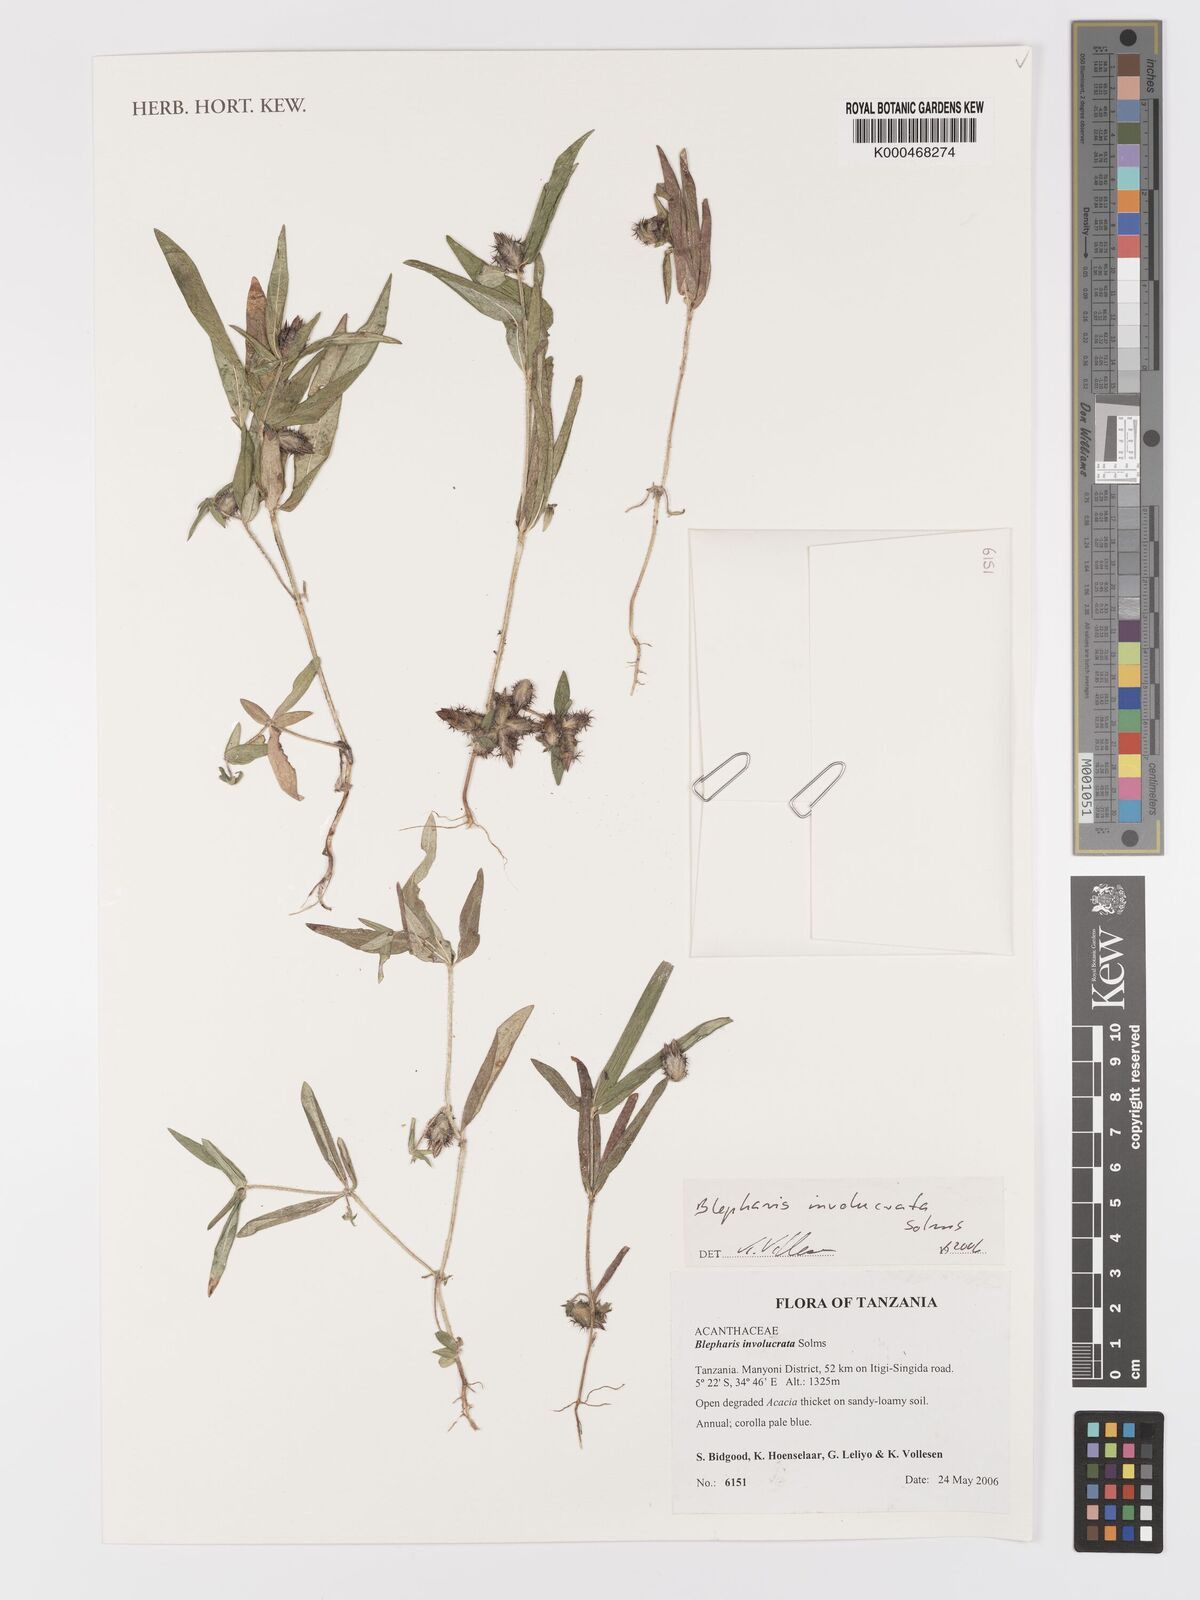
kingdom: Plantae
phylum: Tracheophyta
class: Magnoliopsida
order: Lamiales
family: Acanthaceae
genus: Blepharis
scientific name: Blepharis
